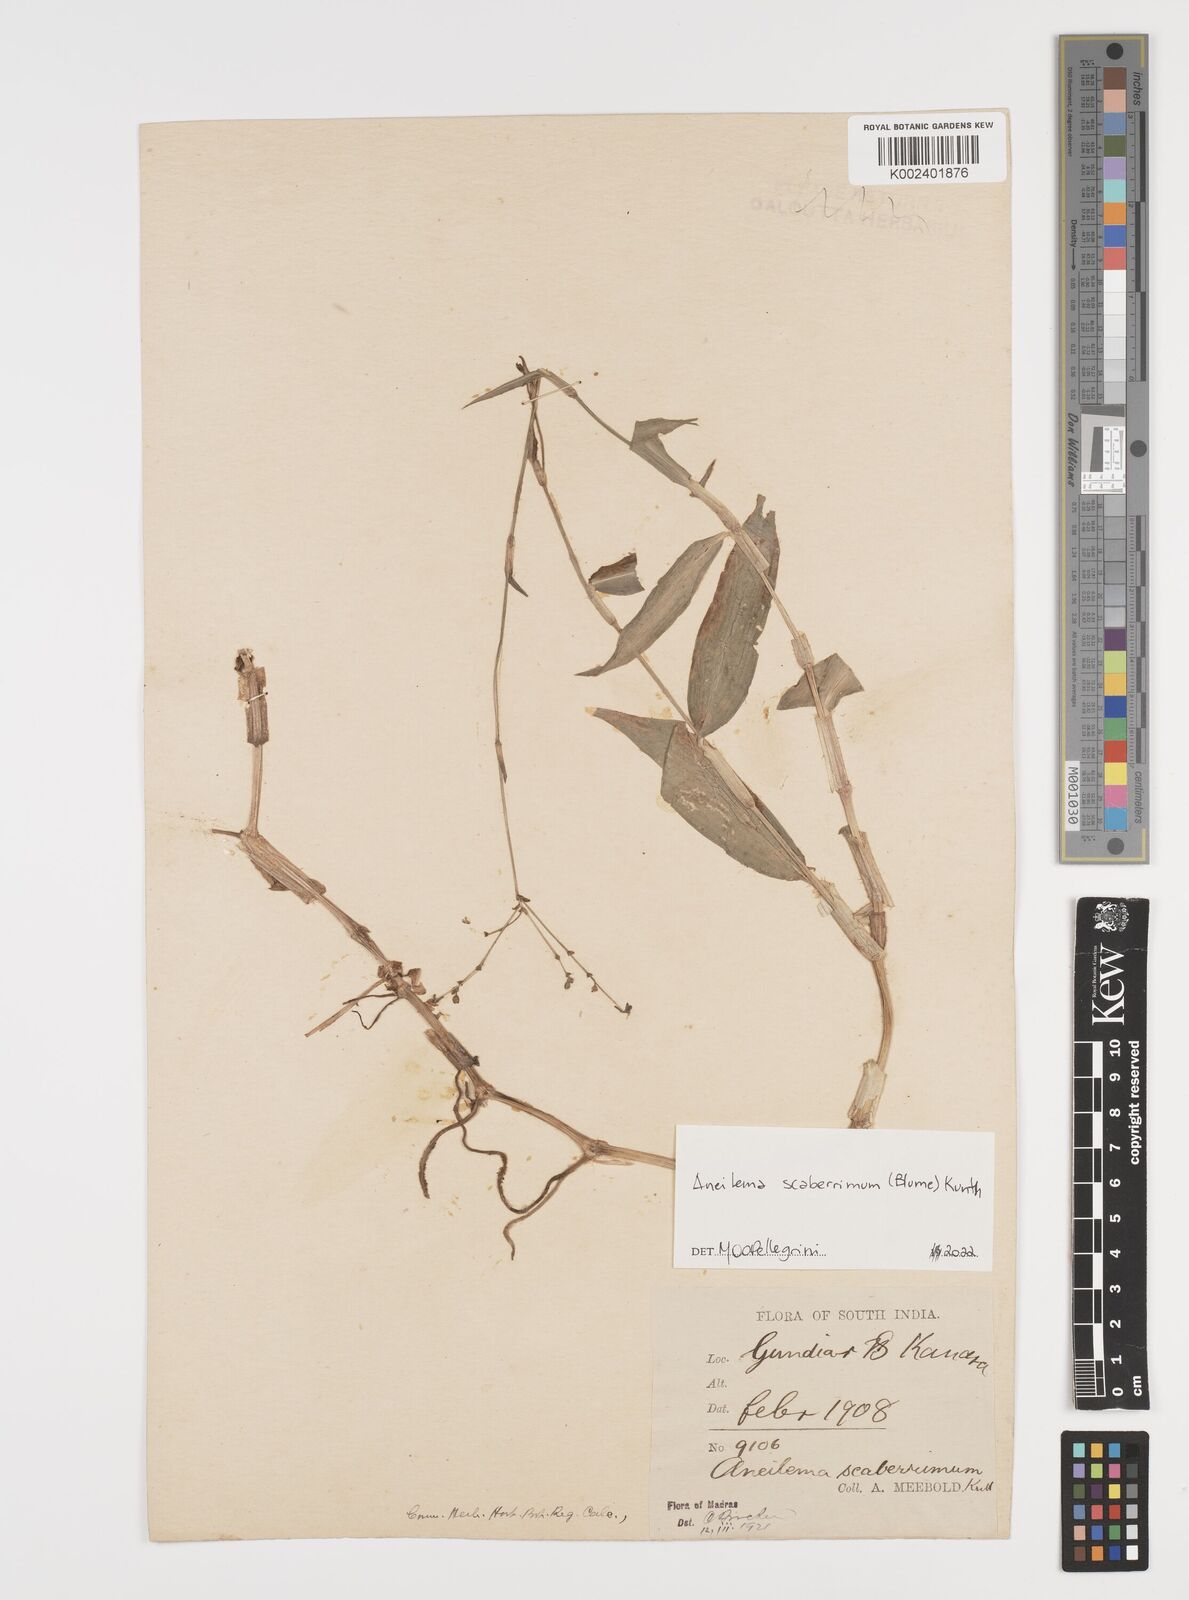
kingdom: Plantae
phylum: Tracheophyta
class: Liliopsida
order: Commelinales
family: Commelinaceae
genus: Rhopalephora
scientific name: Rhopalephora
